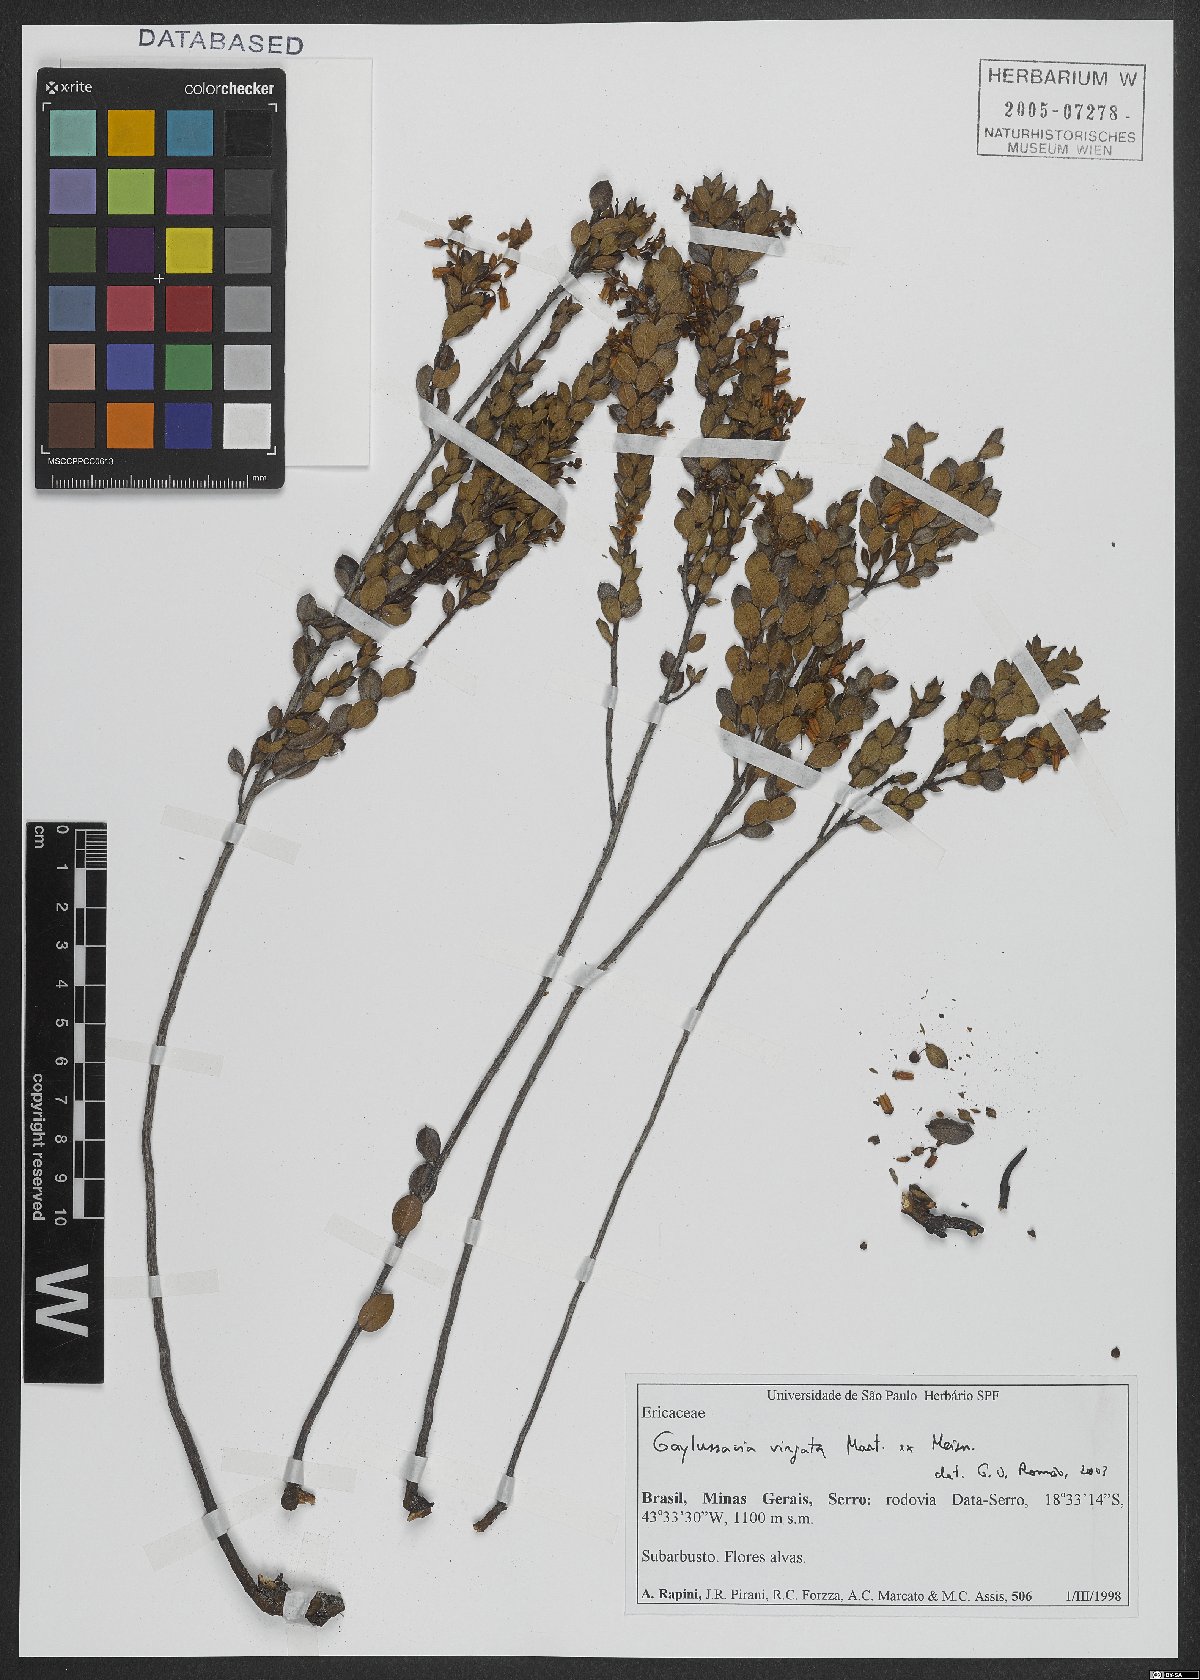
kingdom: Plantae
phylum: Tracheophyta
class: Magnoliopsida
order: Ericales
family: Ericaceae
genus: Gaylussacia
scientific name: Gaylussacia virgata
